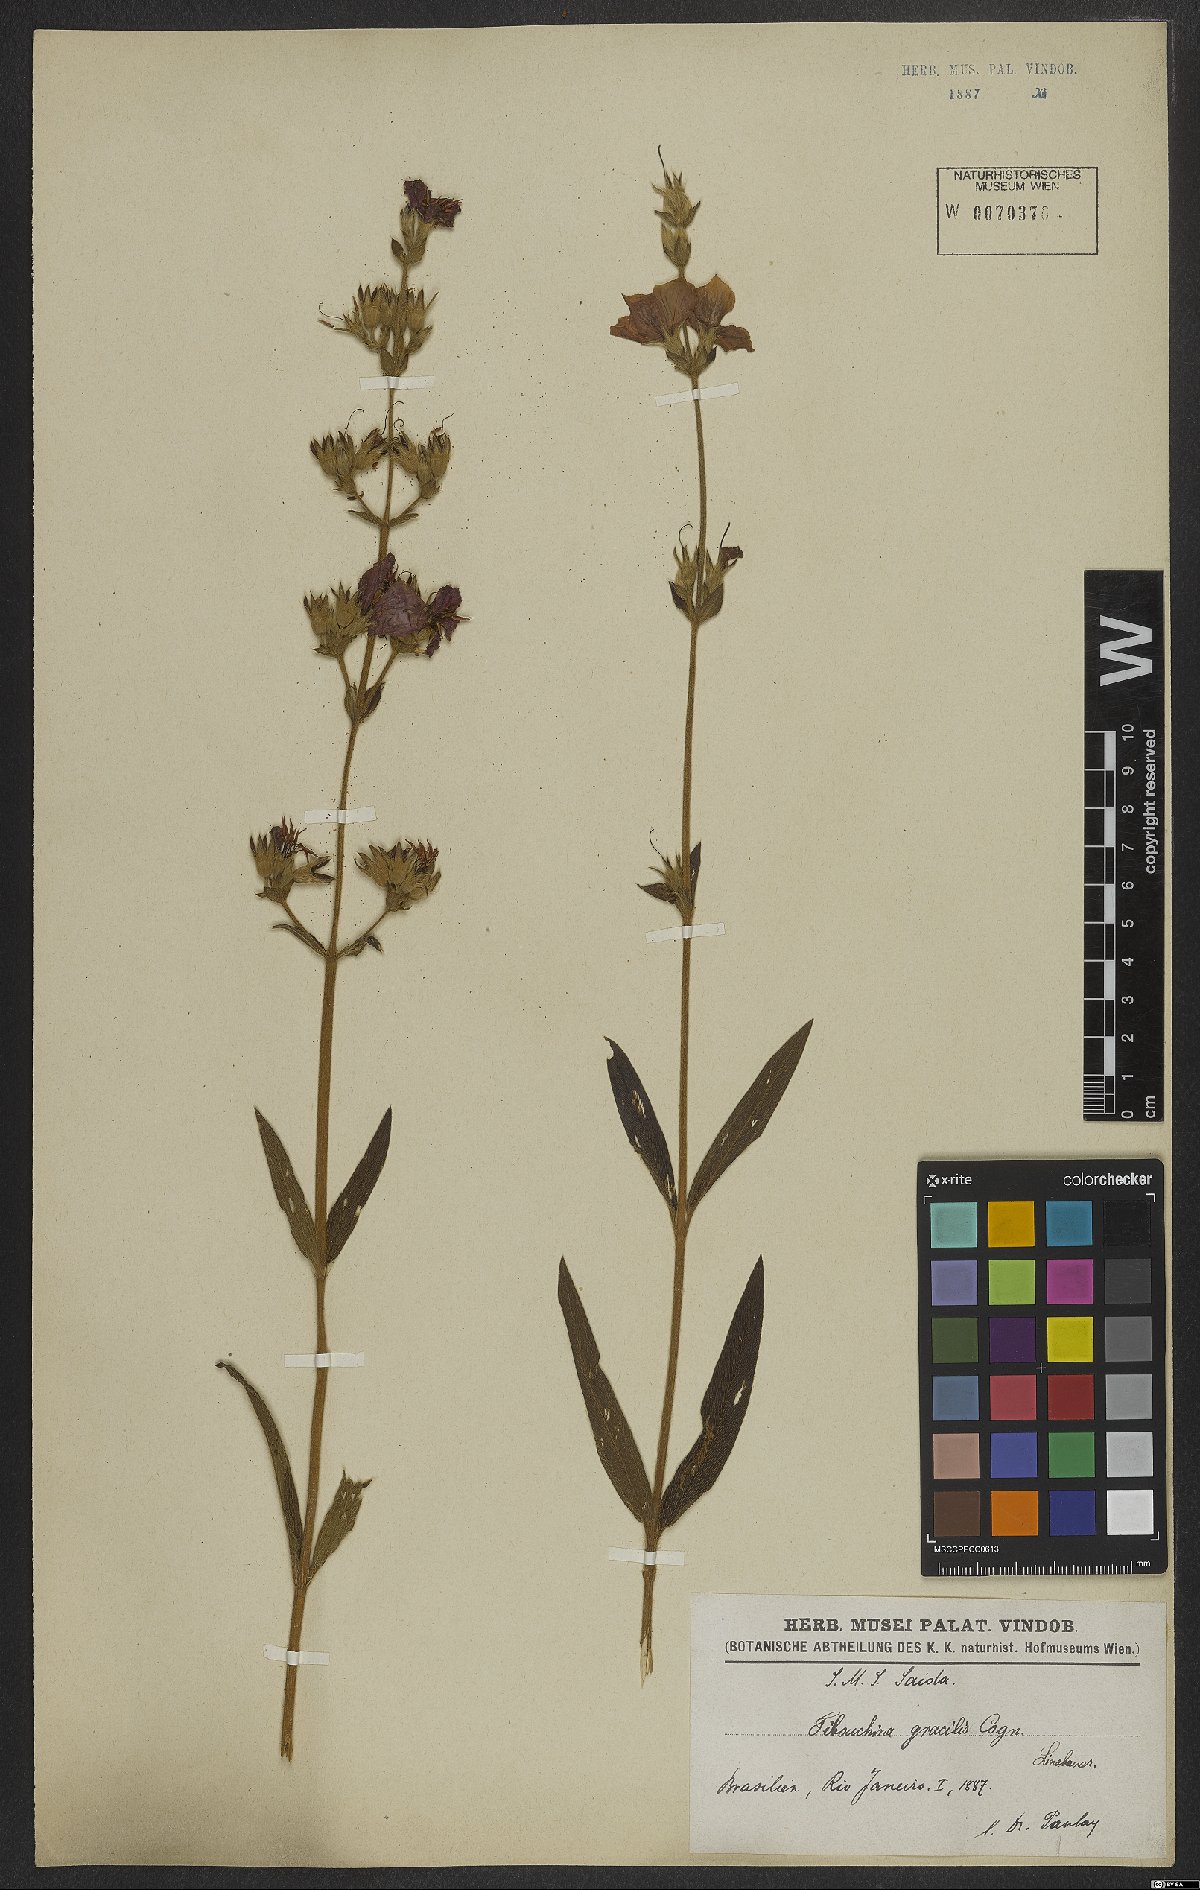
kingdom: Plantae
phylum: Tracheophyta
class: Magnoliopsida
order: Myrtales
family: Melastomataceae
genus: Chaetogastra
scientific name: Chaetogastra gracilis
